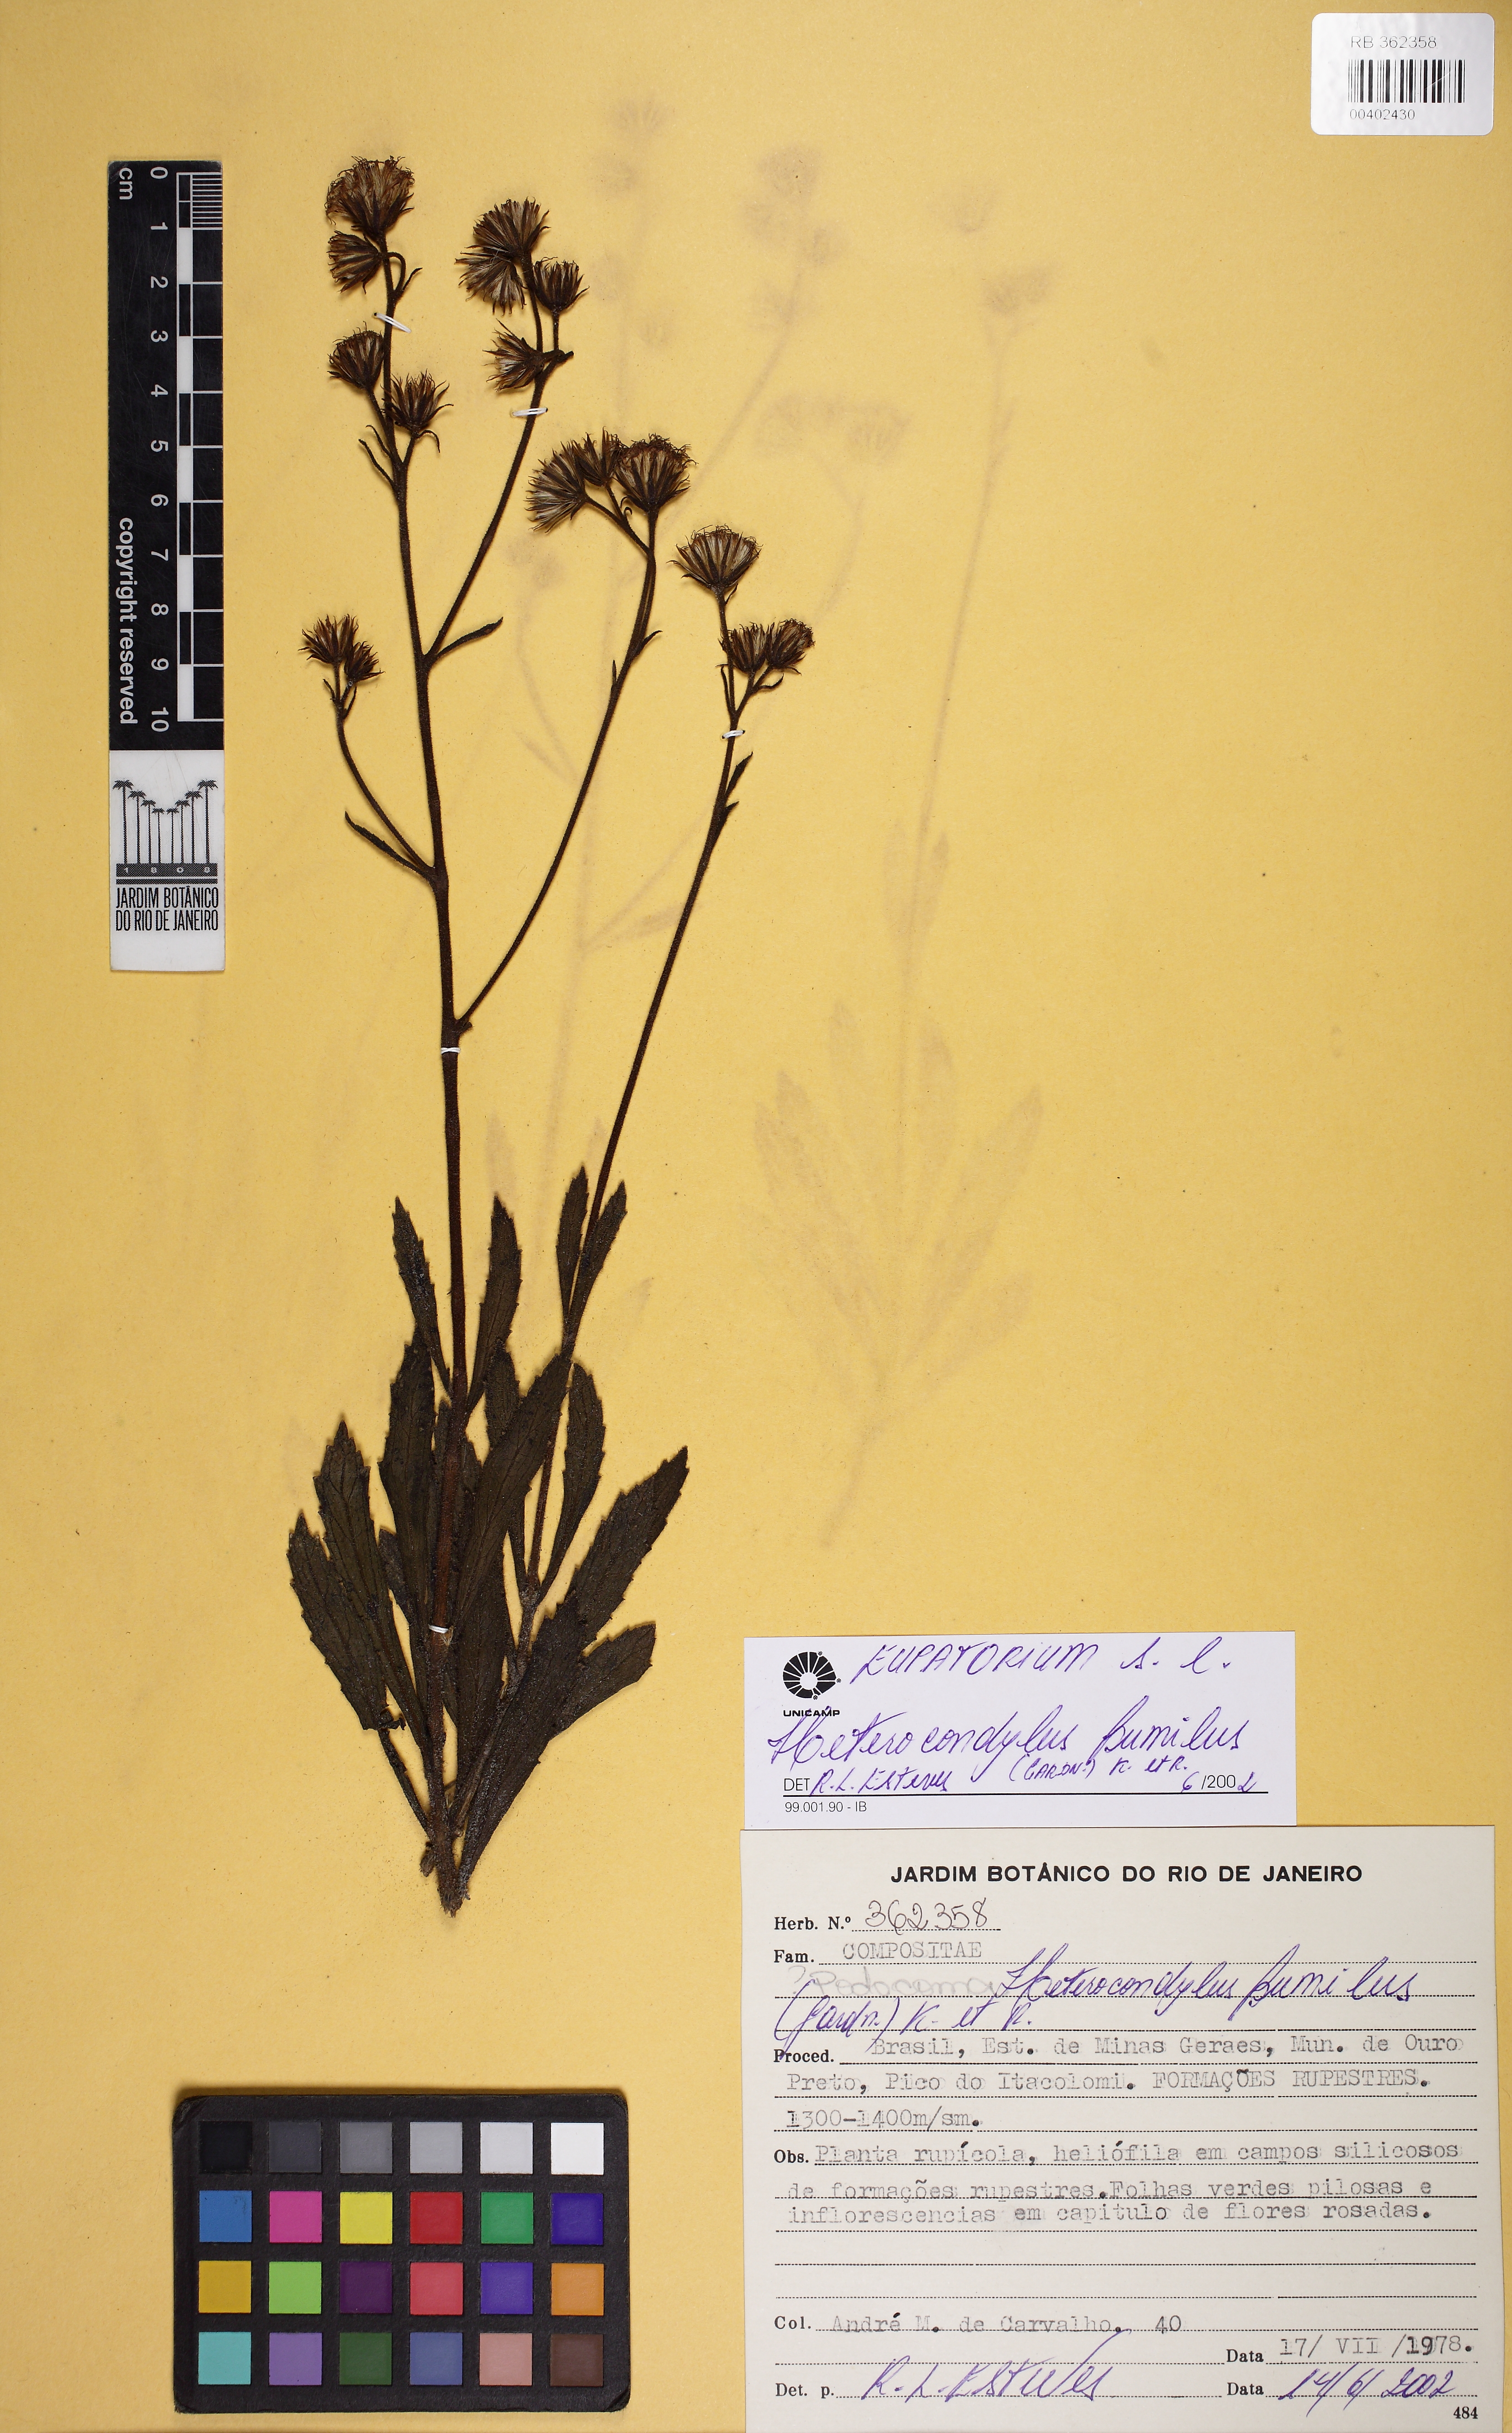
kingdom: Plantae
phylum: Tracheophyta
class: Magnoliopsida
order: Asterales
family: Asteraceae
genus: Heterocondylus
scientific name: Heterocondylus pumilus
